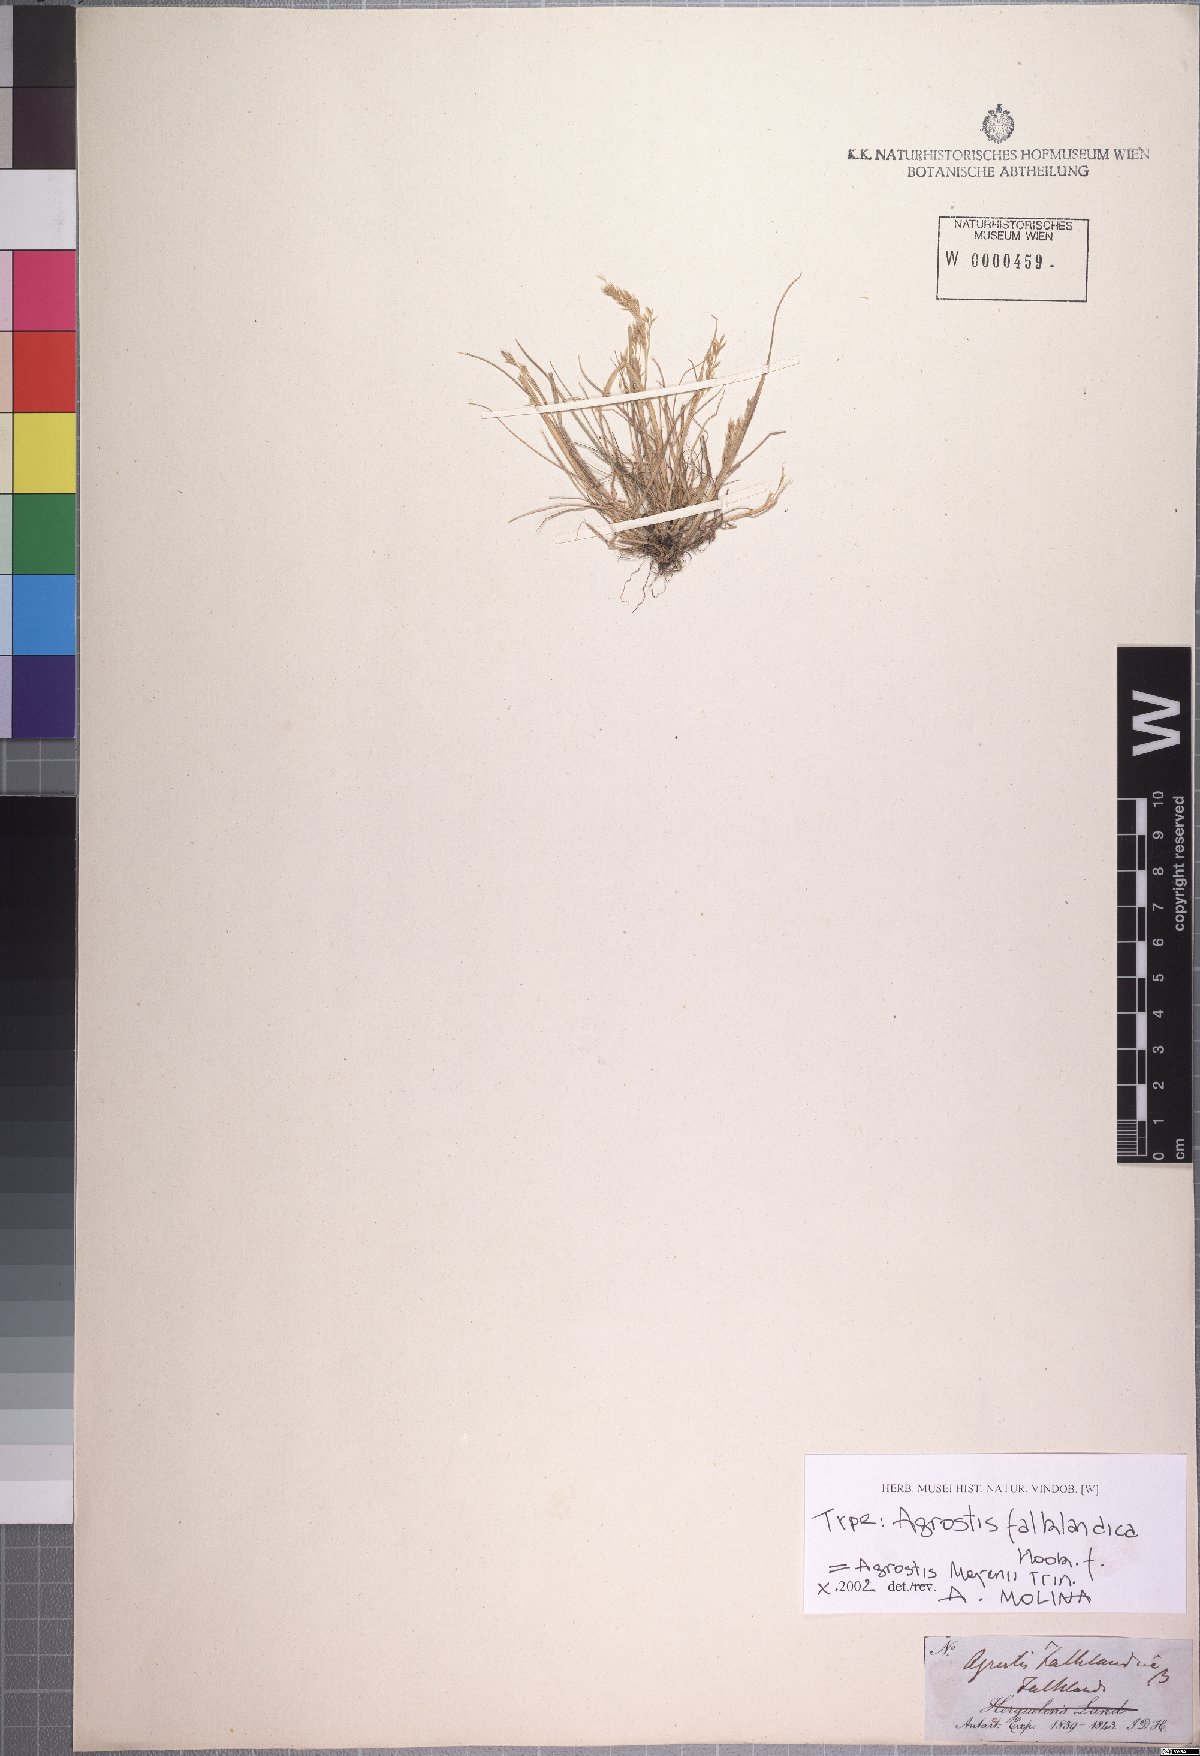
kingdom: Plantae
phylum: Tracheophyta
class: Liliopsida
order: Poales
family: Poaceae
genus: Agrostis
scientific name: Agrostis meyenii
